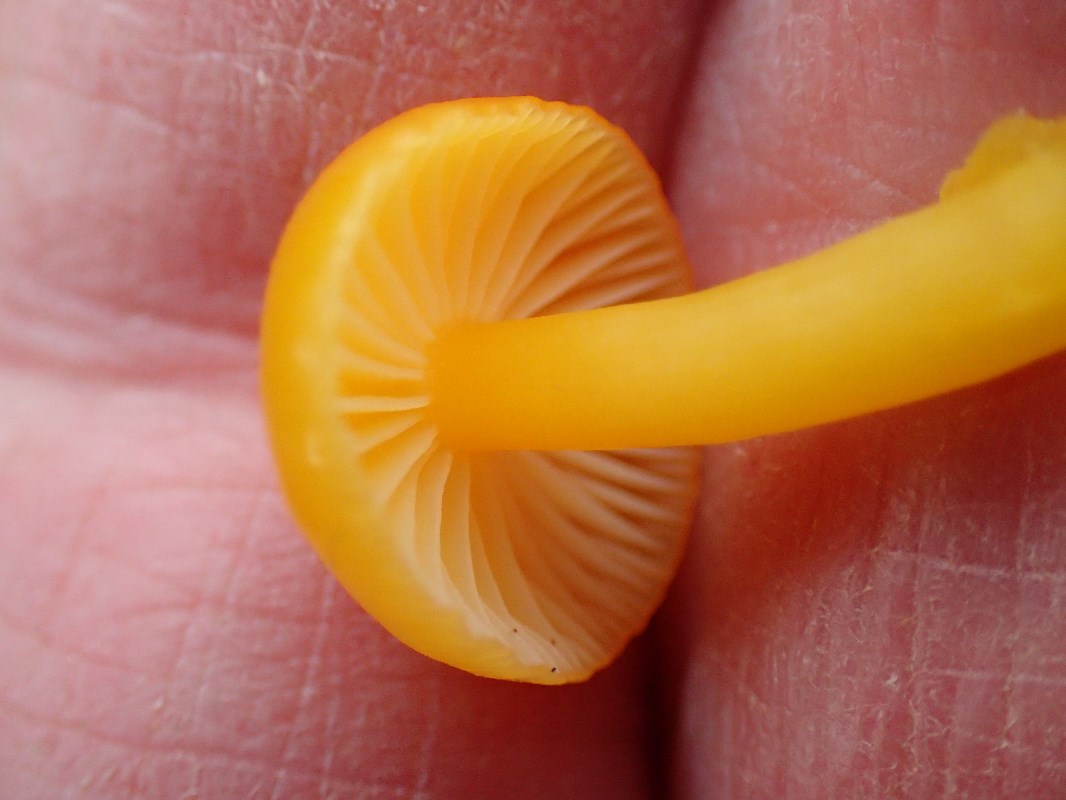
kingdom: Fungi
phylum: Basidiomycota
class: Agaricomycetes
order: Agaricales
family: Hygrophoraceae
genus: Hygrocybe
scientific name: Hygrocybe ceracea
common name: voksgul vokshat
